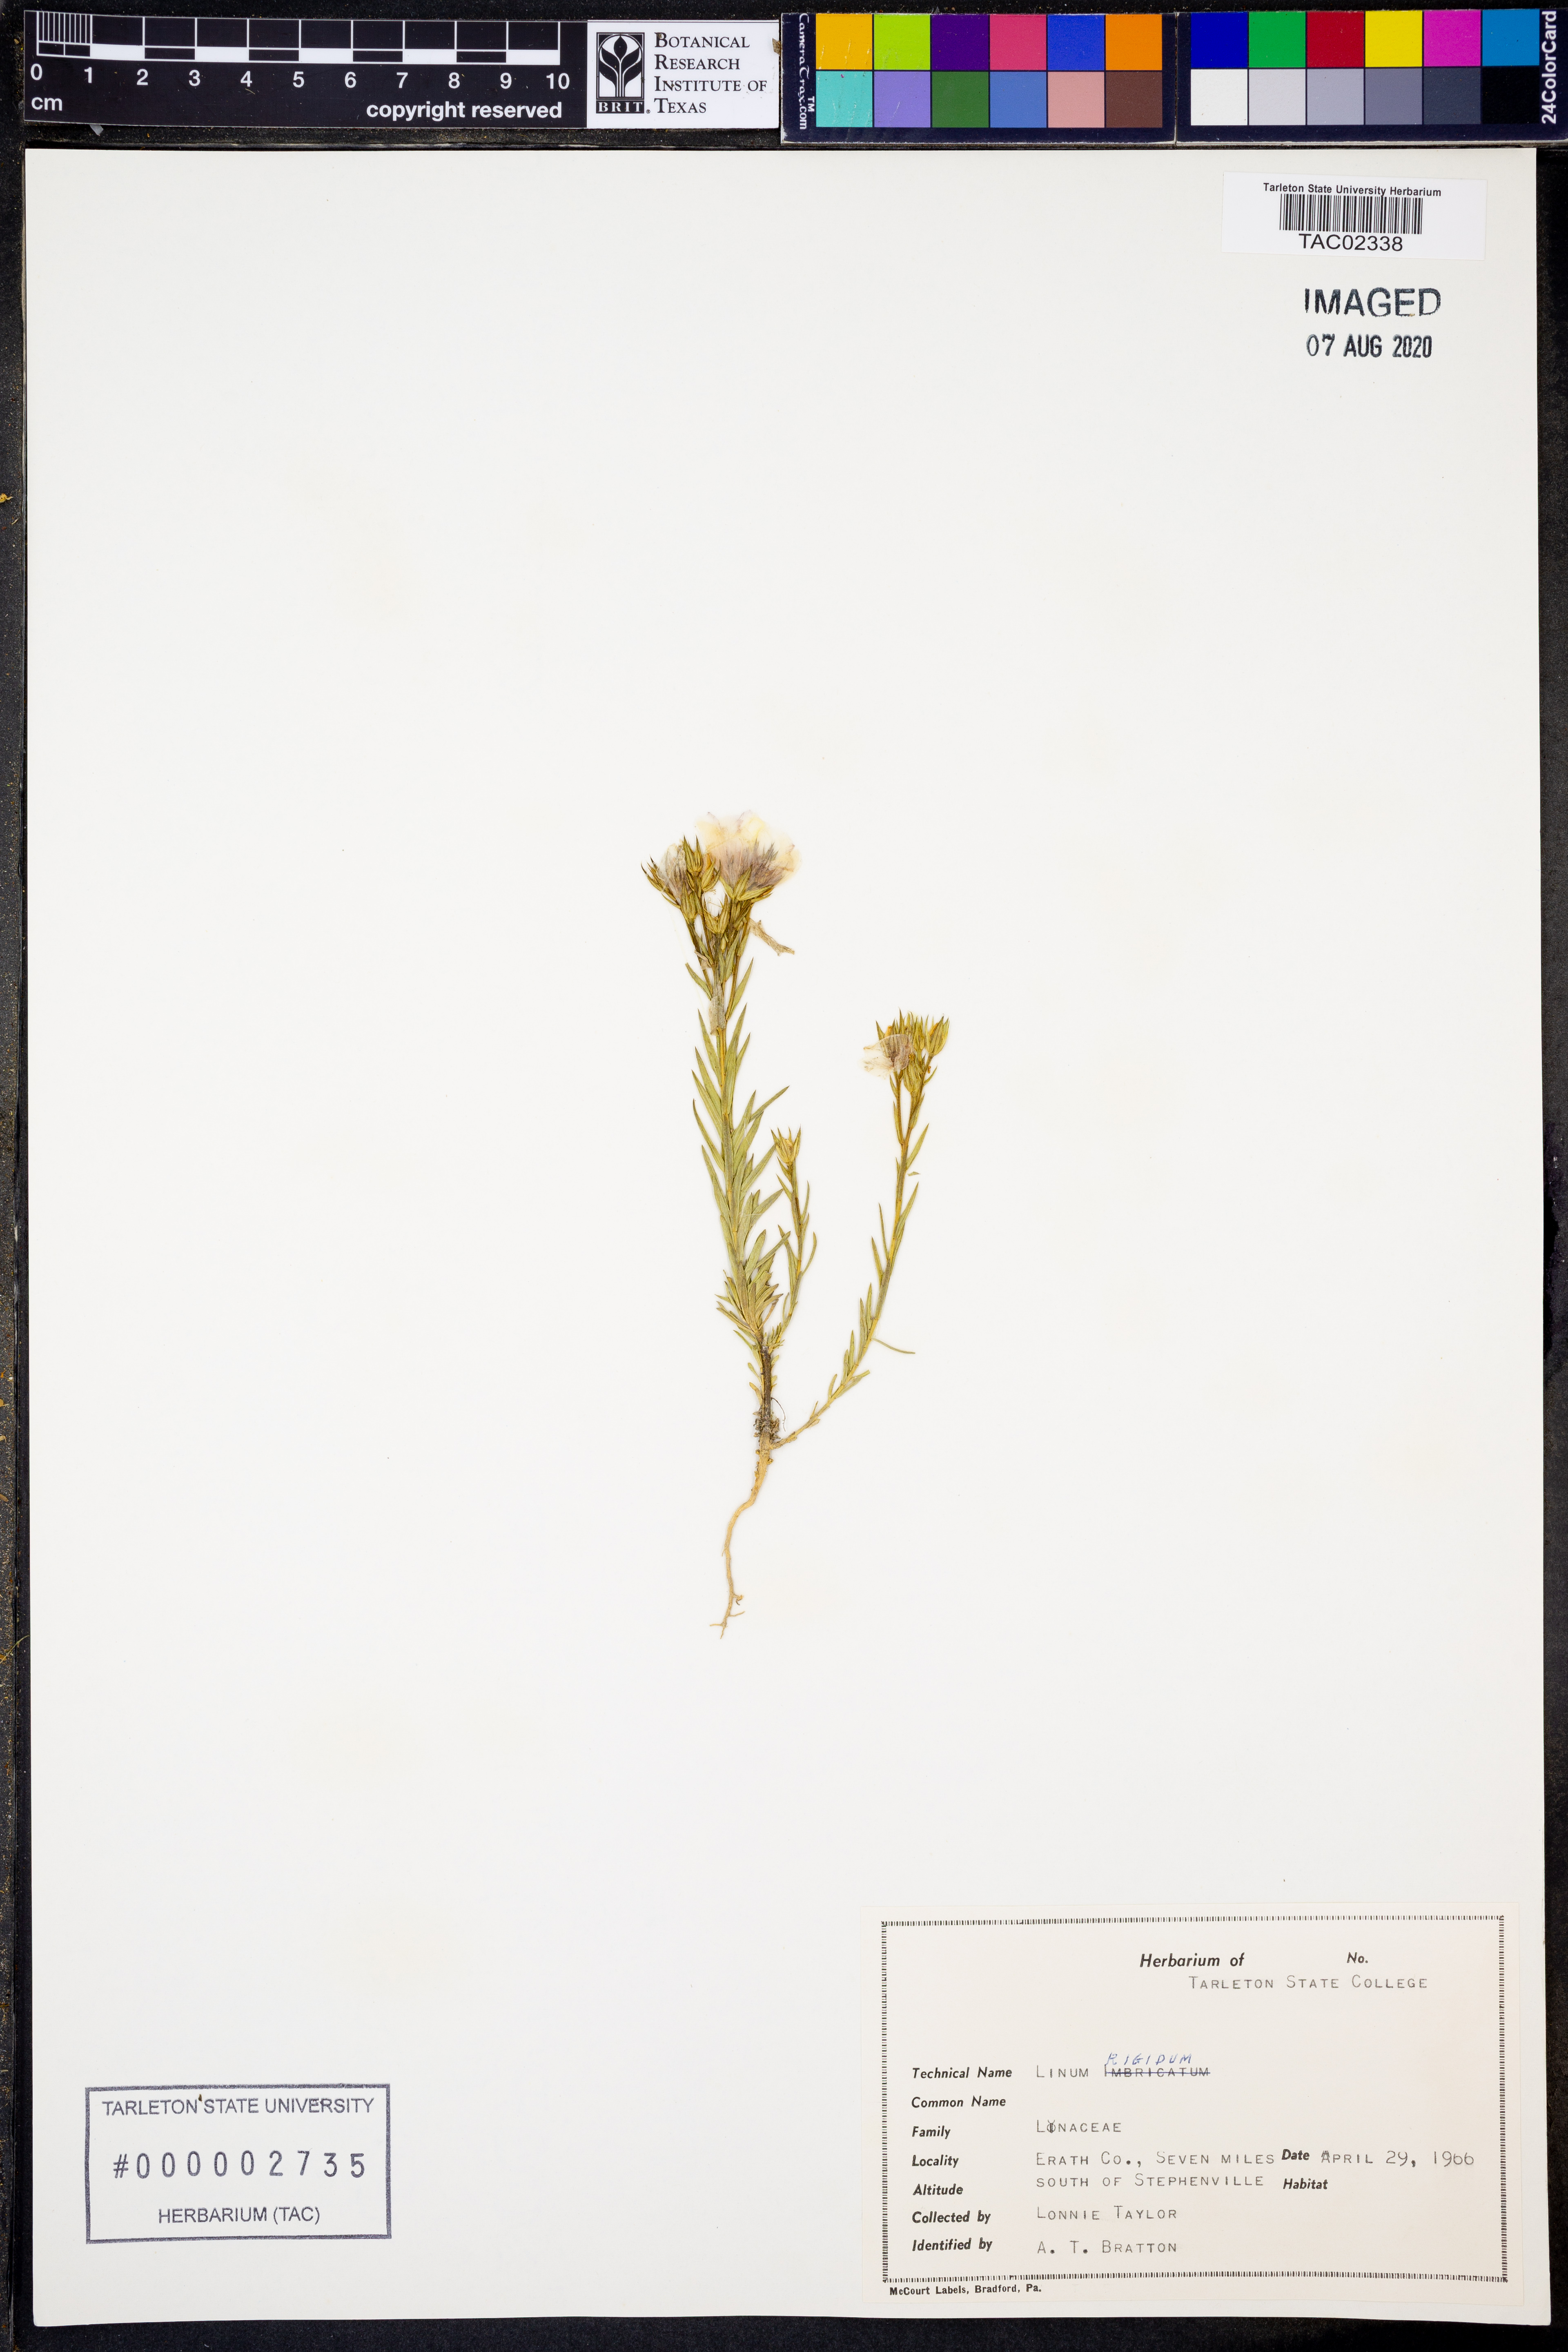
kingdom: Plantae
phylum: Tracheophyta
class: Magnoliopsida
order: Malpighiales
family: Linaceae
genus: Linum
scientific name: Linum rigidum
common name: Stiff-stem flax
